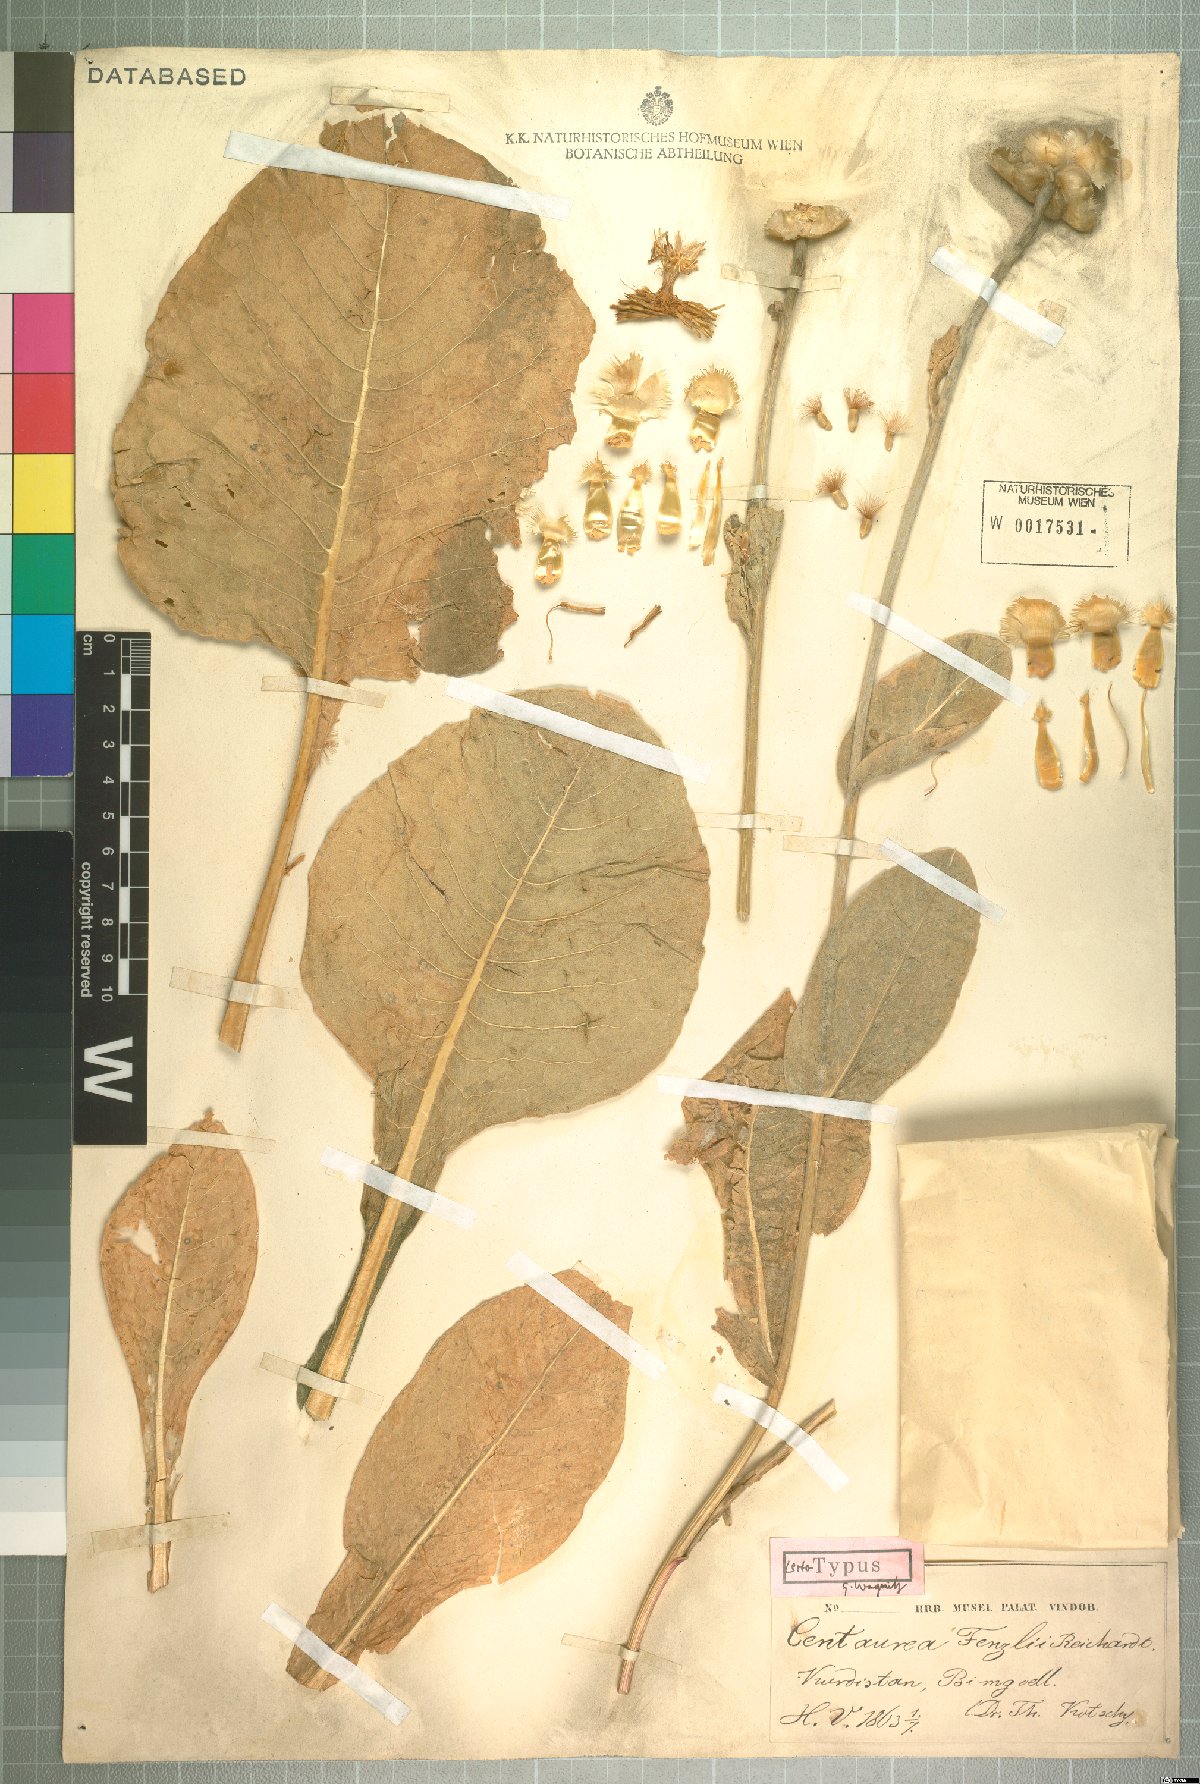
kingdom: Plantae
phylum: Tracheophyta
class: Magnoliopsida
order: Asterales
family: Asteraceae
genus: Centaurea
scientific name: Centaurea fenzlii
